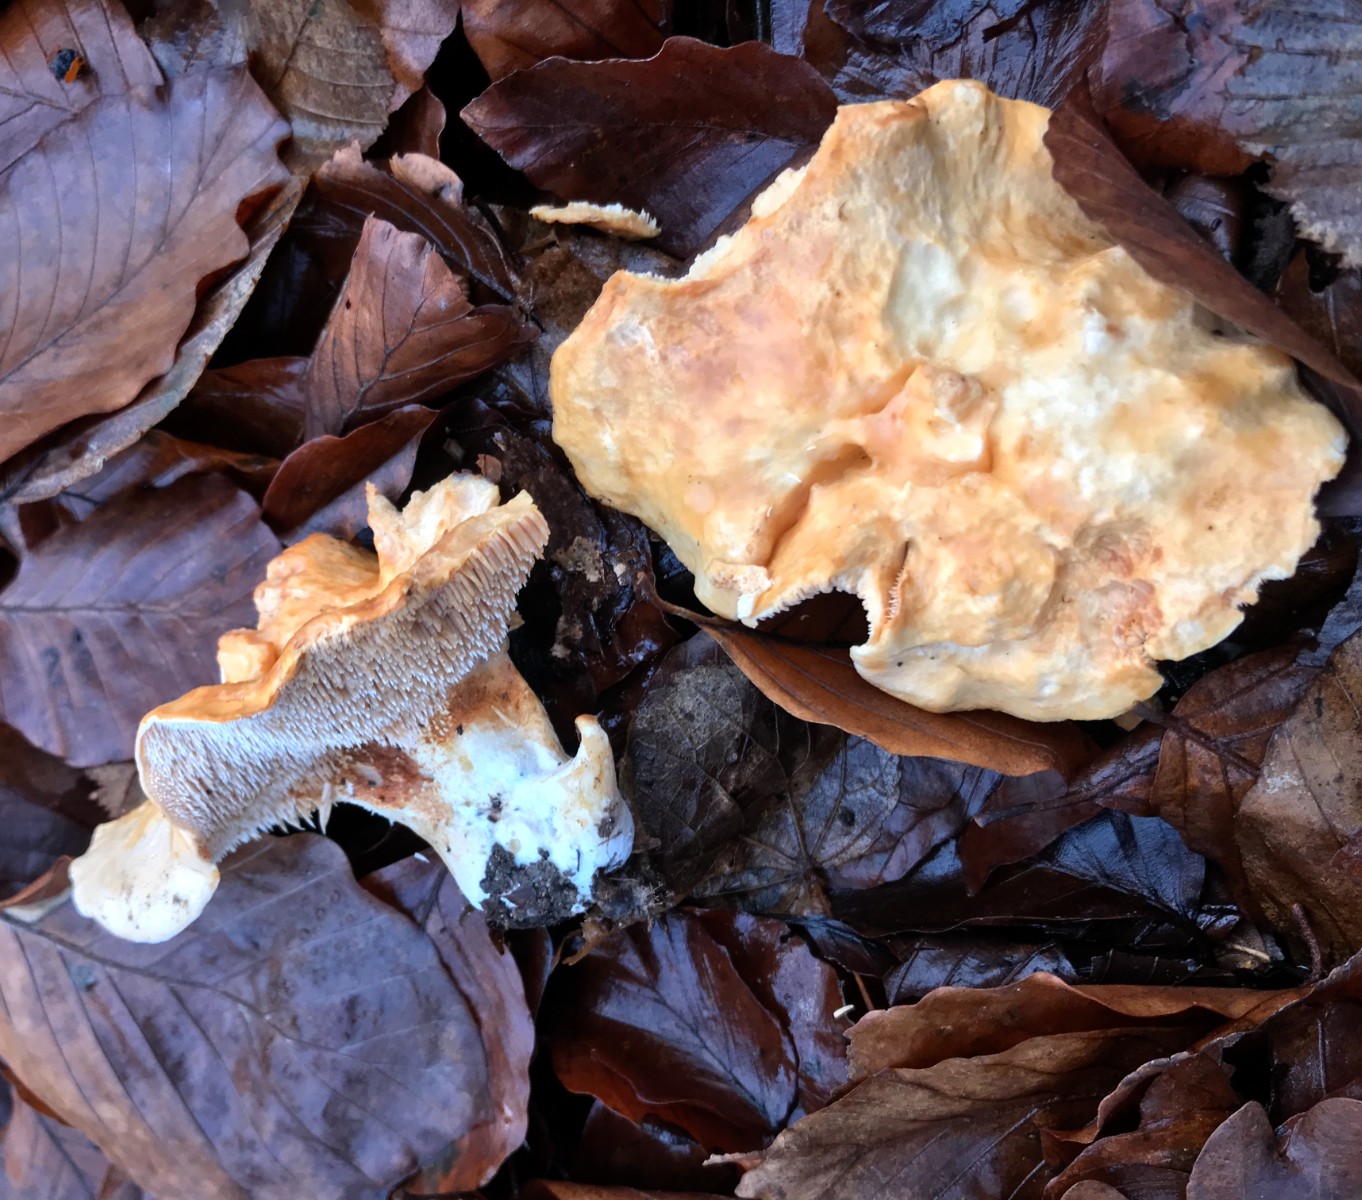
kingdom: Fungi
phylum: Basidiomycota
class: Agaricomycetes
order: Cantharellales
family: Hydnaceae
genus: Hydnum
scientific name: Hydnum
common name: pigsvamp
